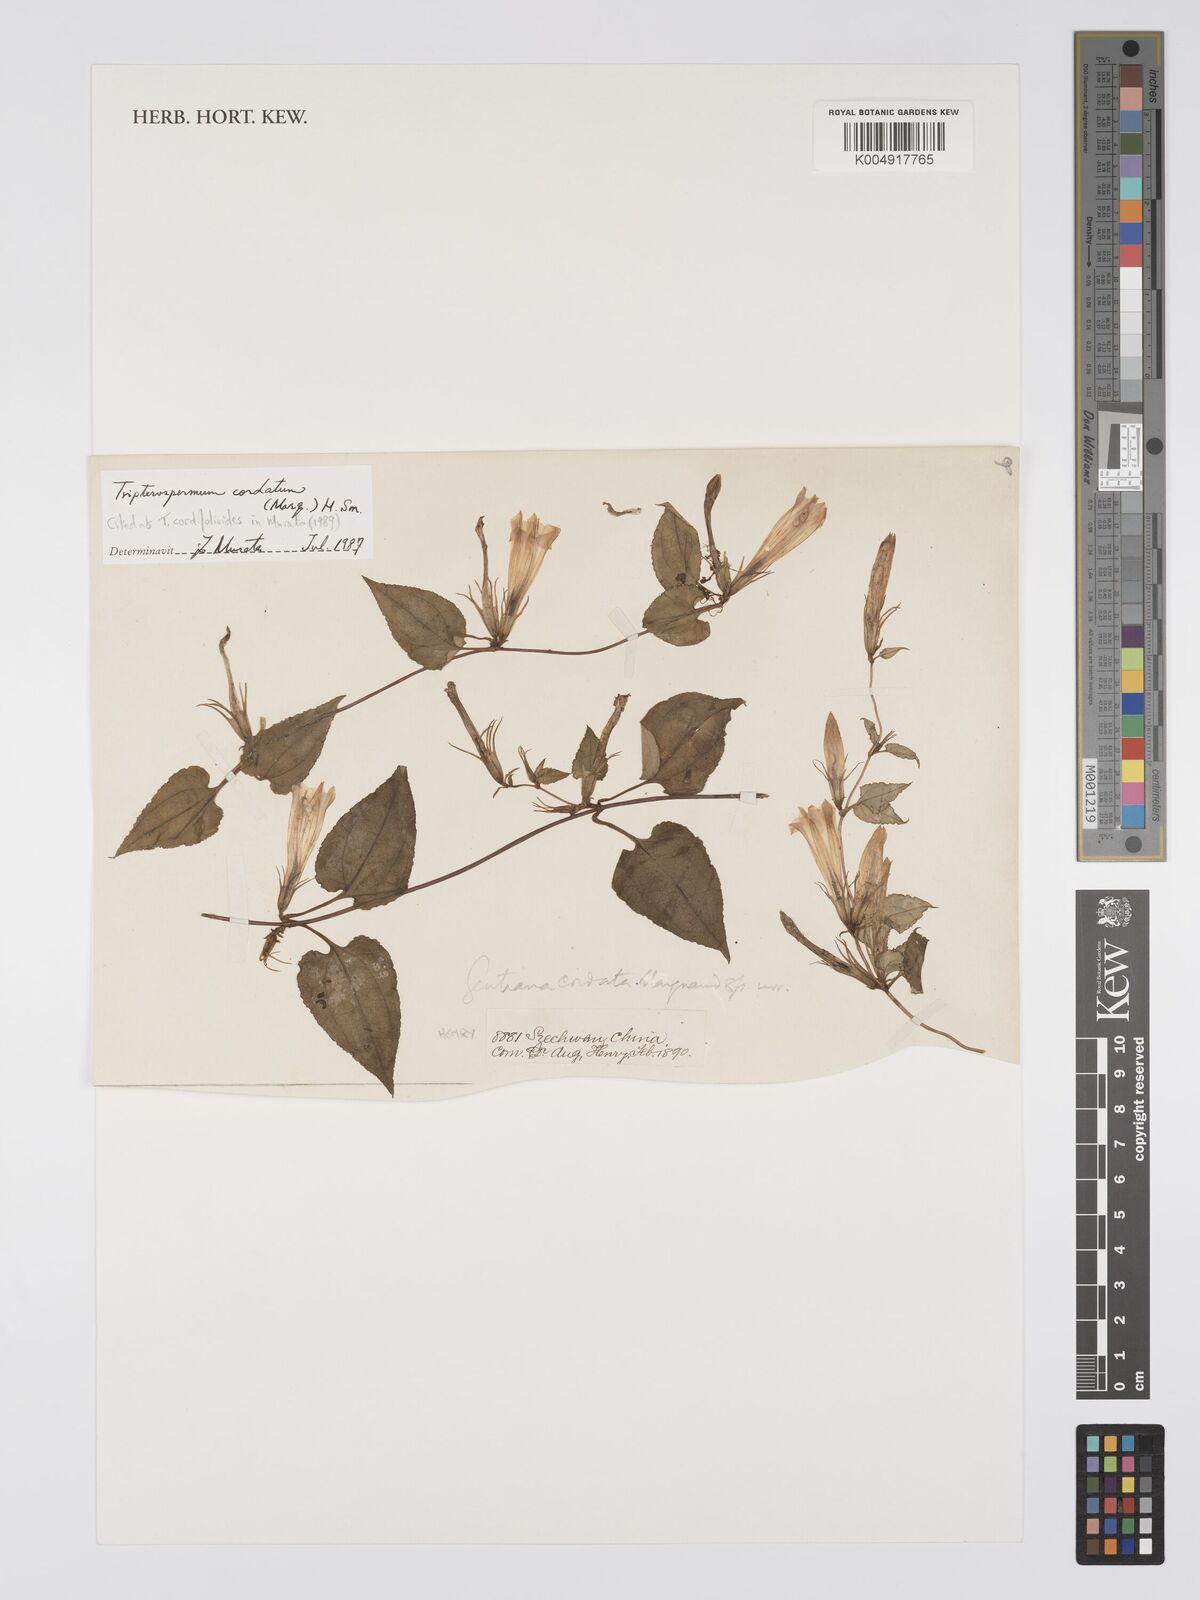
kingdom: Plantae
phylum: Tracheophyta
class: Magnoliopsida
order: Gentianales
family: Gentianaceae
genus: Tripterospermum
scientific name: Tripterospermum cordatum
